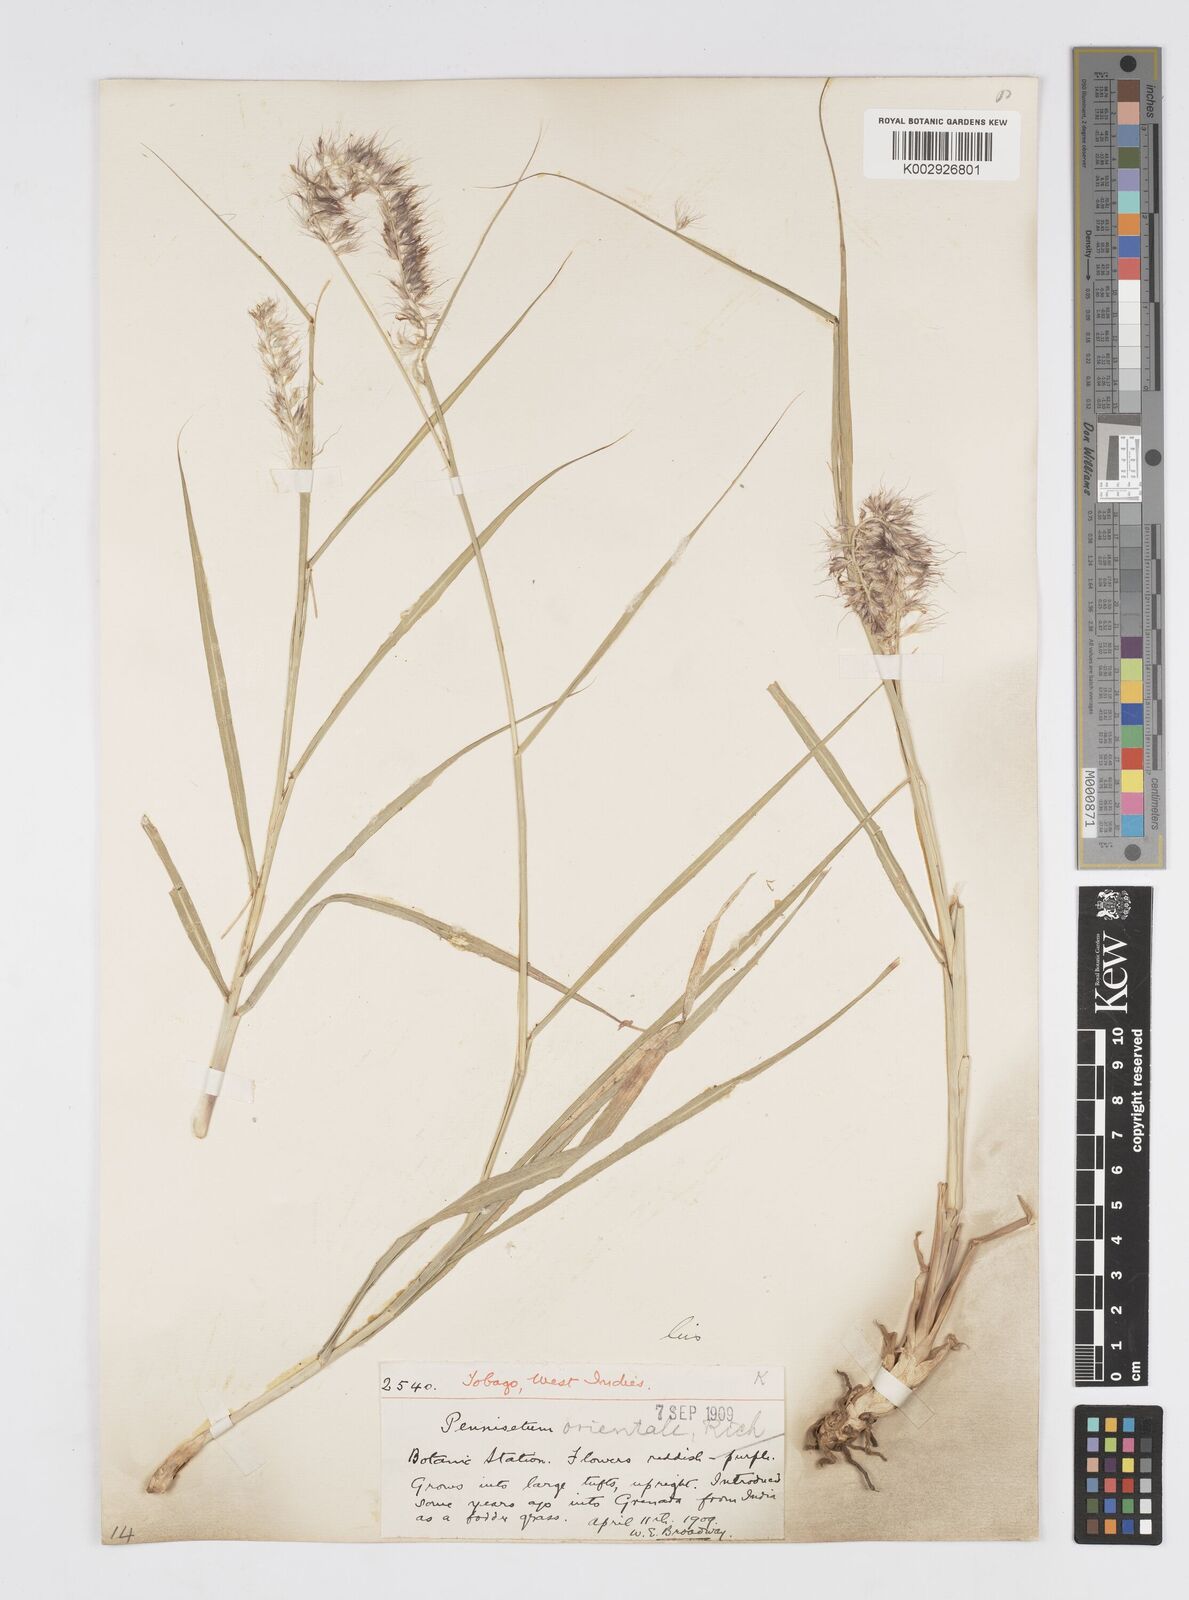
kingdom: Plantae
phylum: Tracheophyta
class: Liliopsida
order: Poales
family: Poaceae
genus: Cenchrus
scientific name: Cenchrus orientalis
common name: Oriental fountain grass
